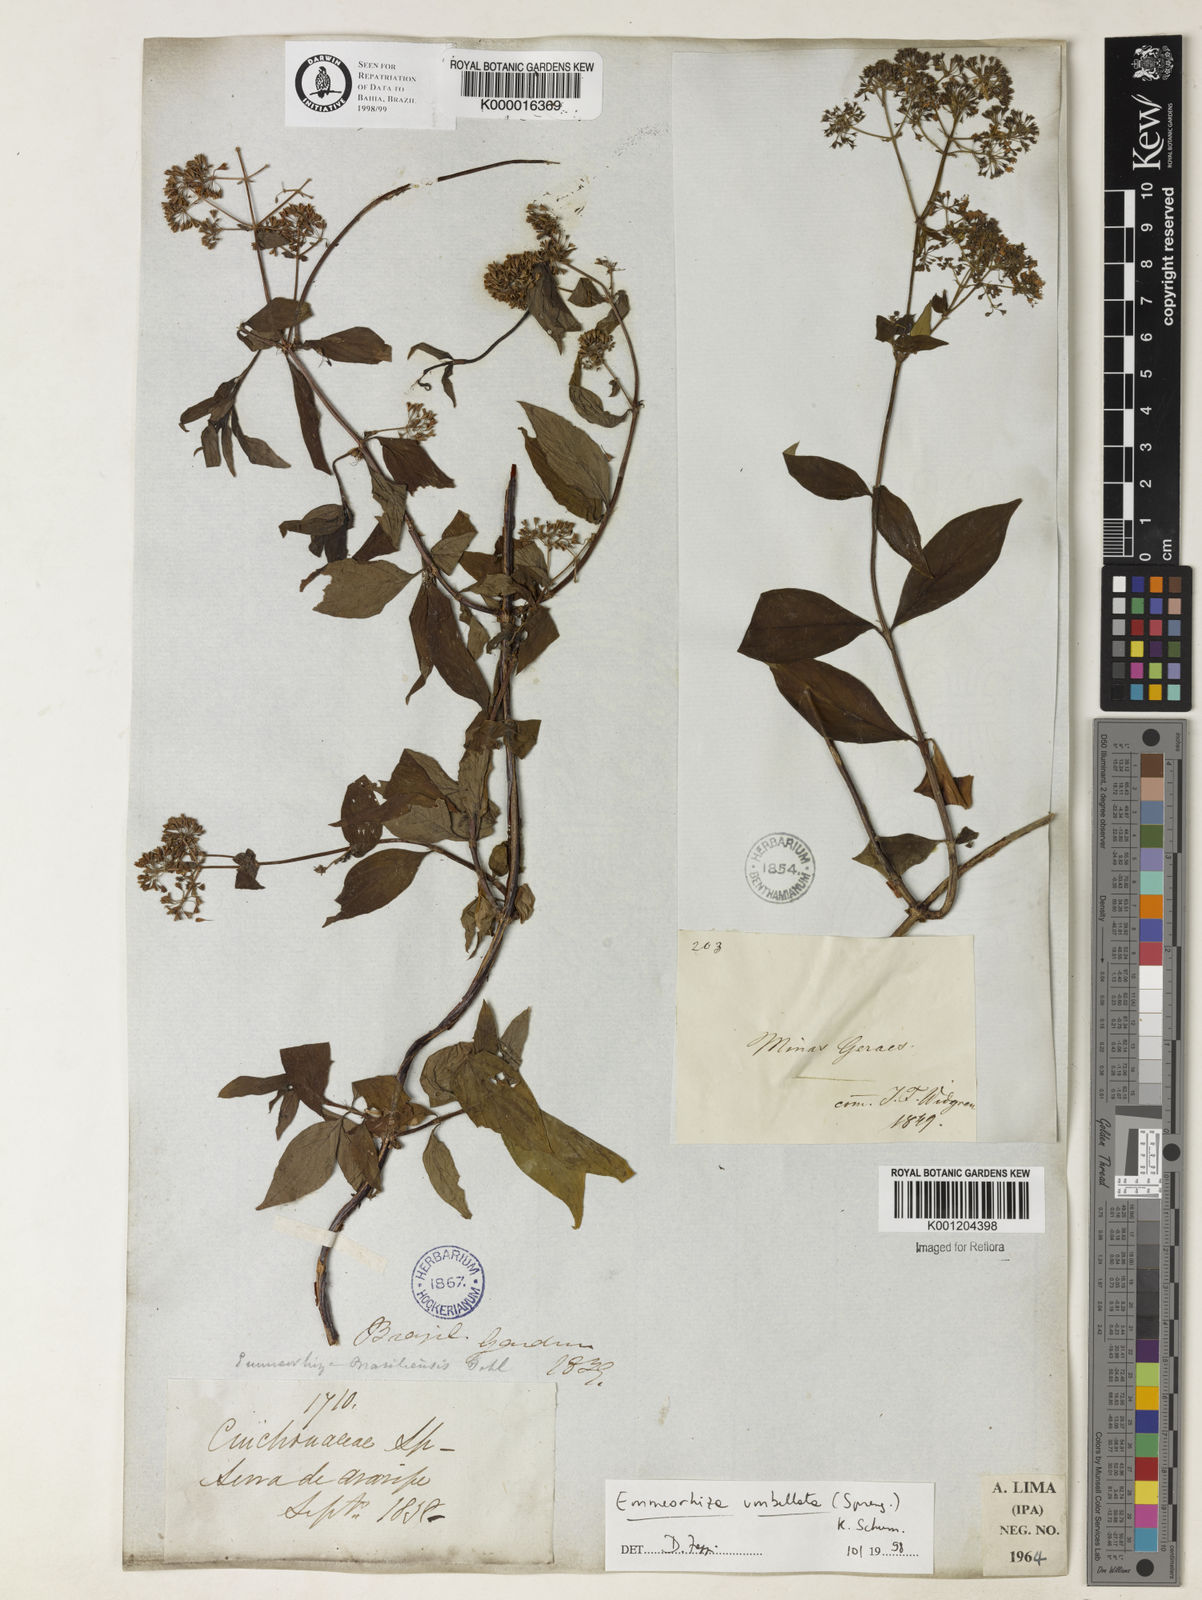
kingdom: Plantae
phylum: Tracheophyta
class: Magnoliopsida
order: Gentianales
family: Rubiaceae
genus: Emmeorhiza
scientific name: Emmeorhiza umbellata
